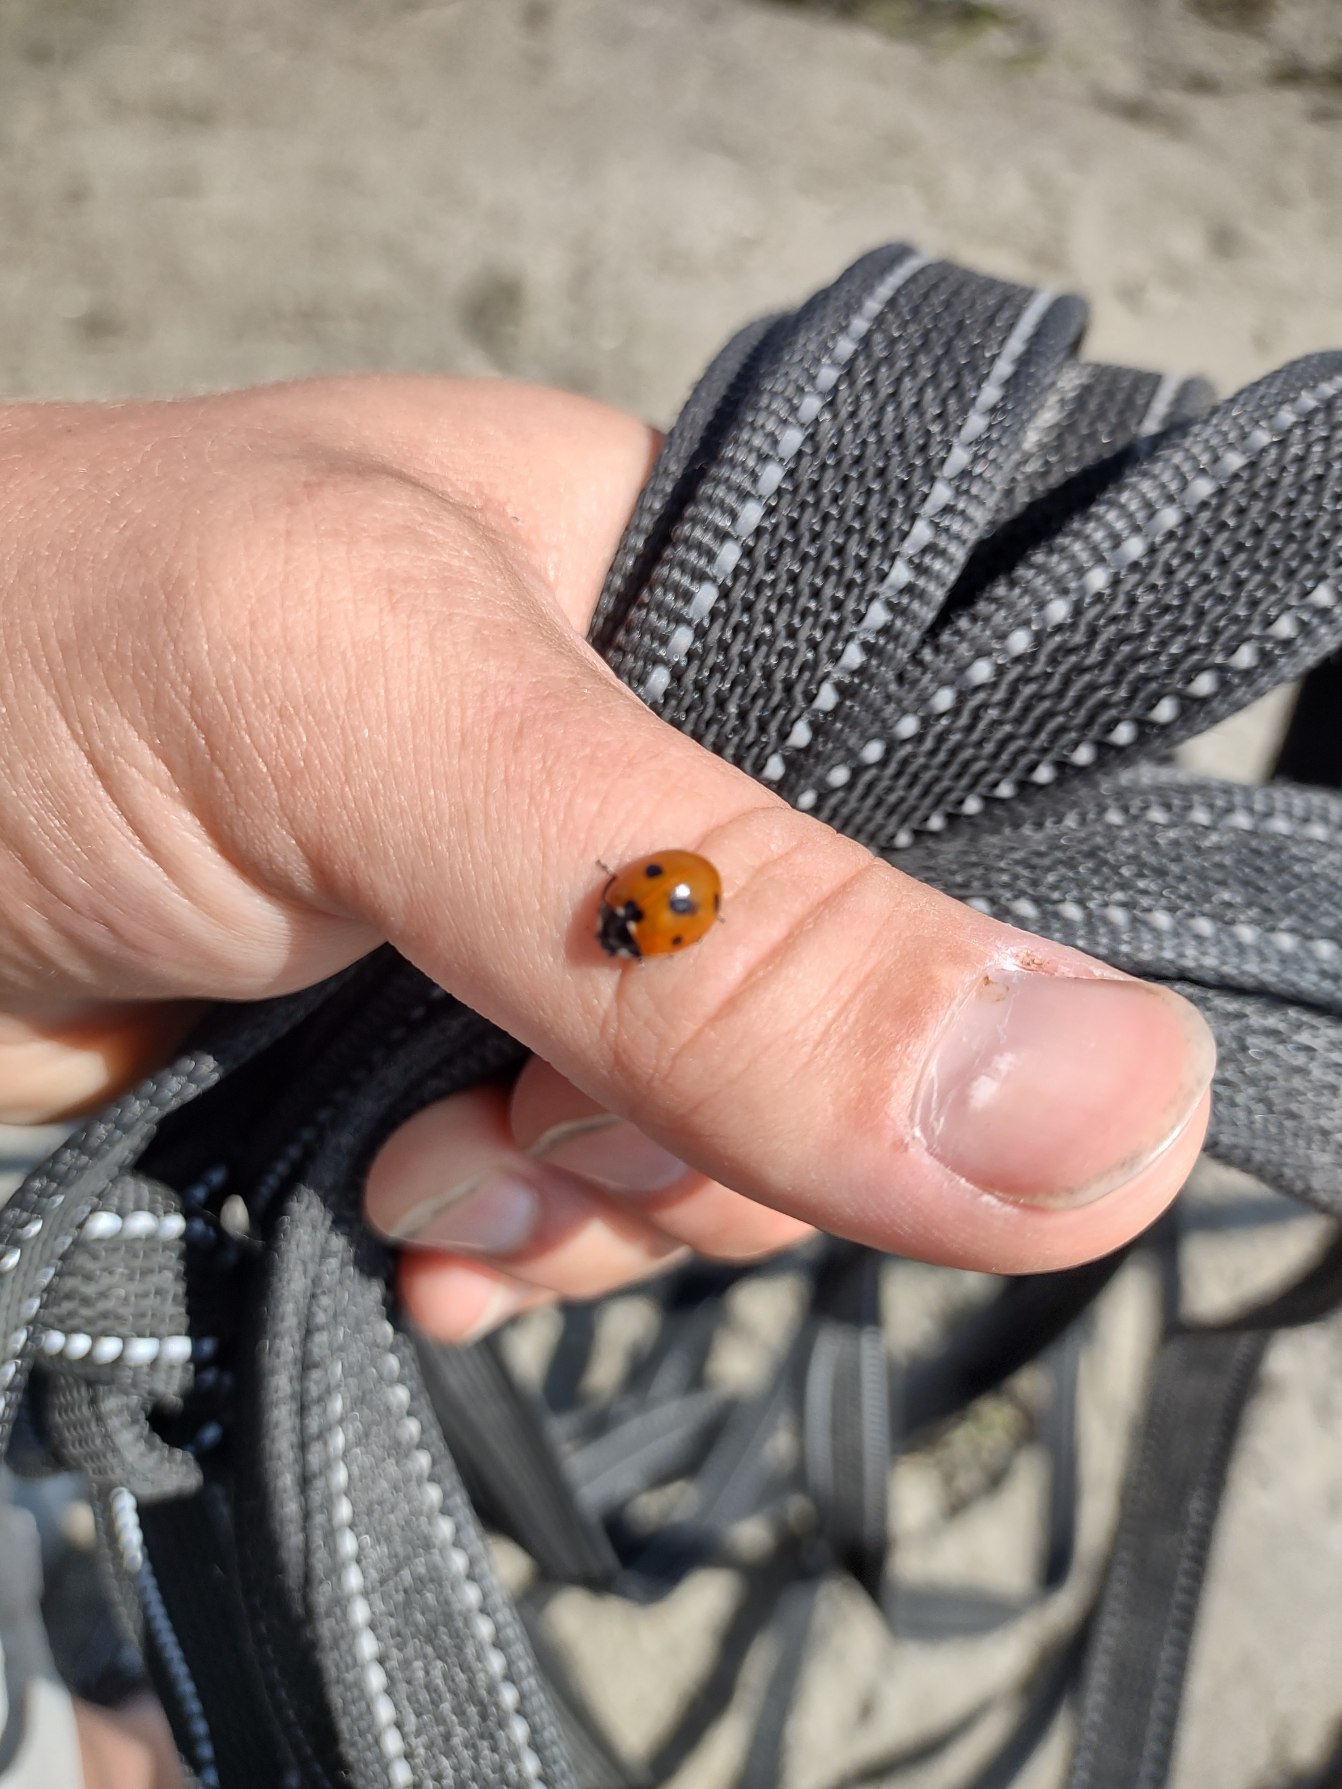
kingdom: Animalia
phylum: Arthropoda
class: Insecta
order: Coleoptera
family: Coccinellidae
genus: Coccinella
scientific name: Coccinella septempunctata
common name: Syvplettet mariehøne
